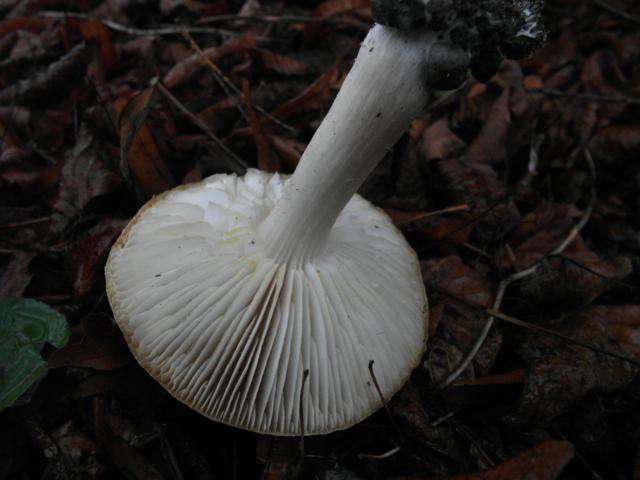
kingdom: Fungi
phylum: Basidiomycota
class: Agaricomycetes
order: Agaricales
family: Tricholomataceae
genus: Tricholoma
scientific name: Tricholoma scalpturatum
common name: gulplettet ridderhat
